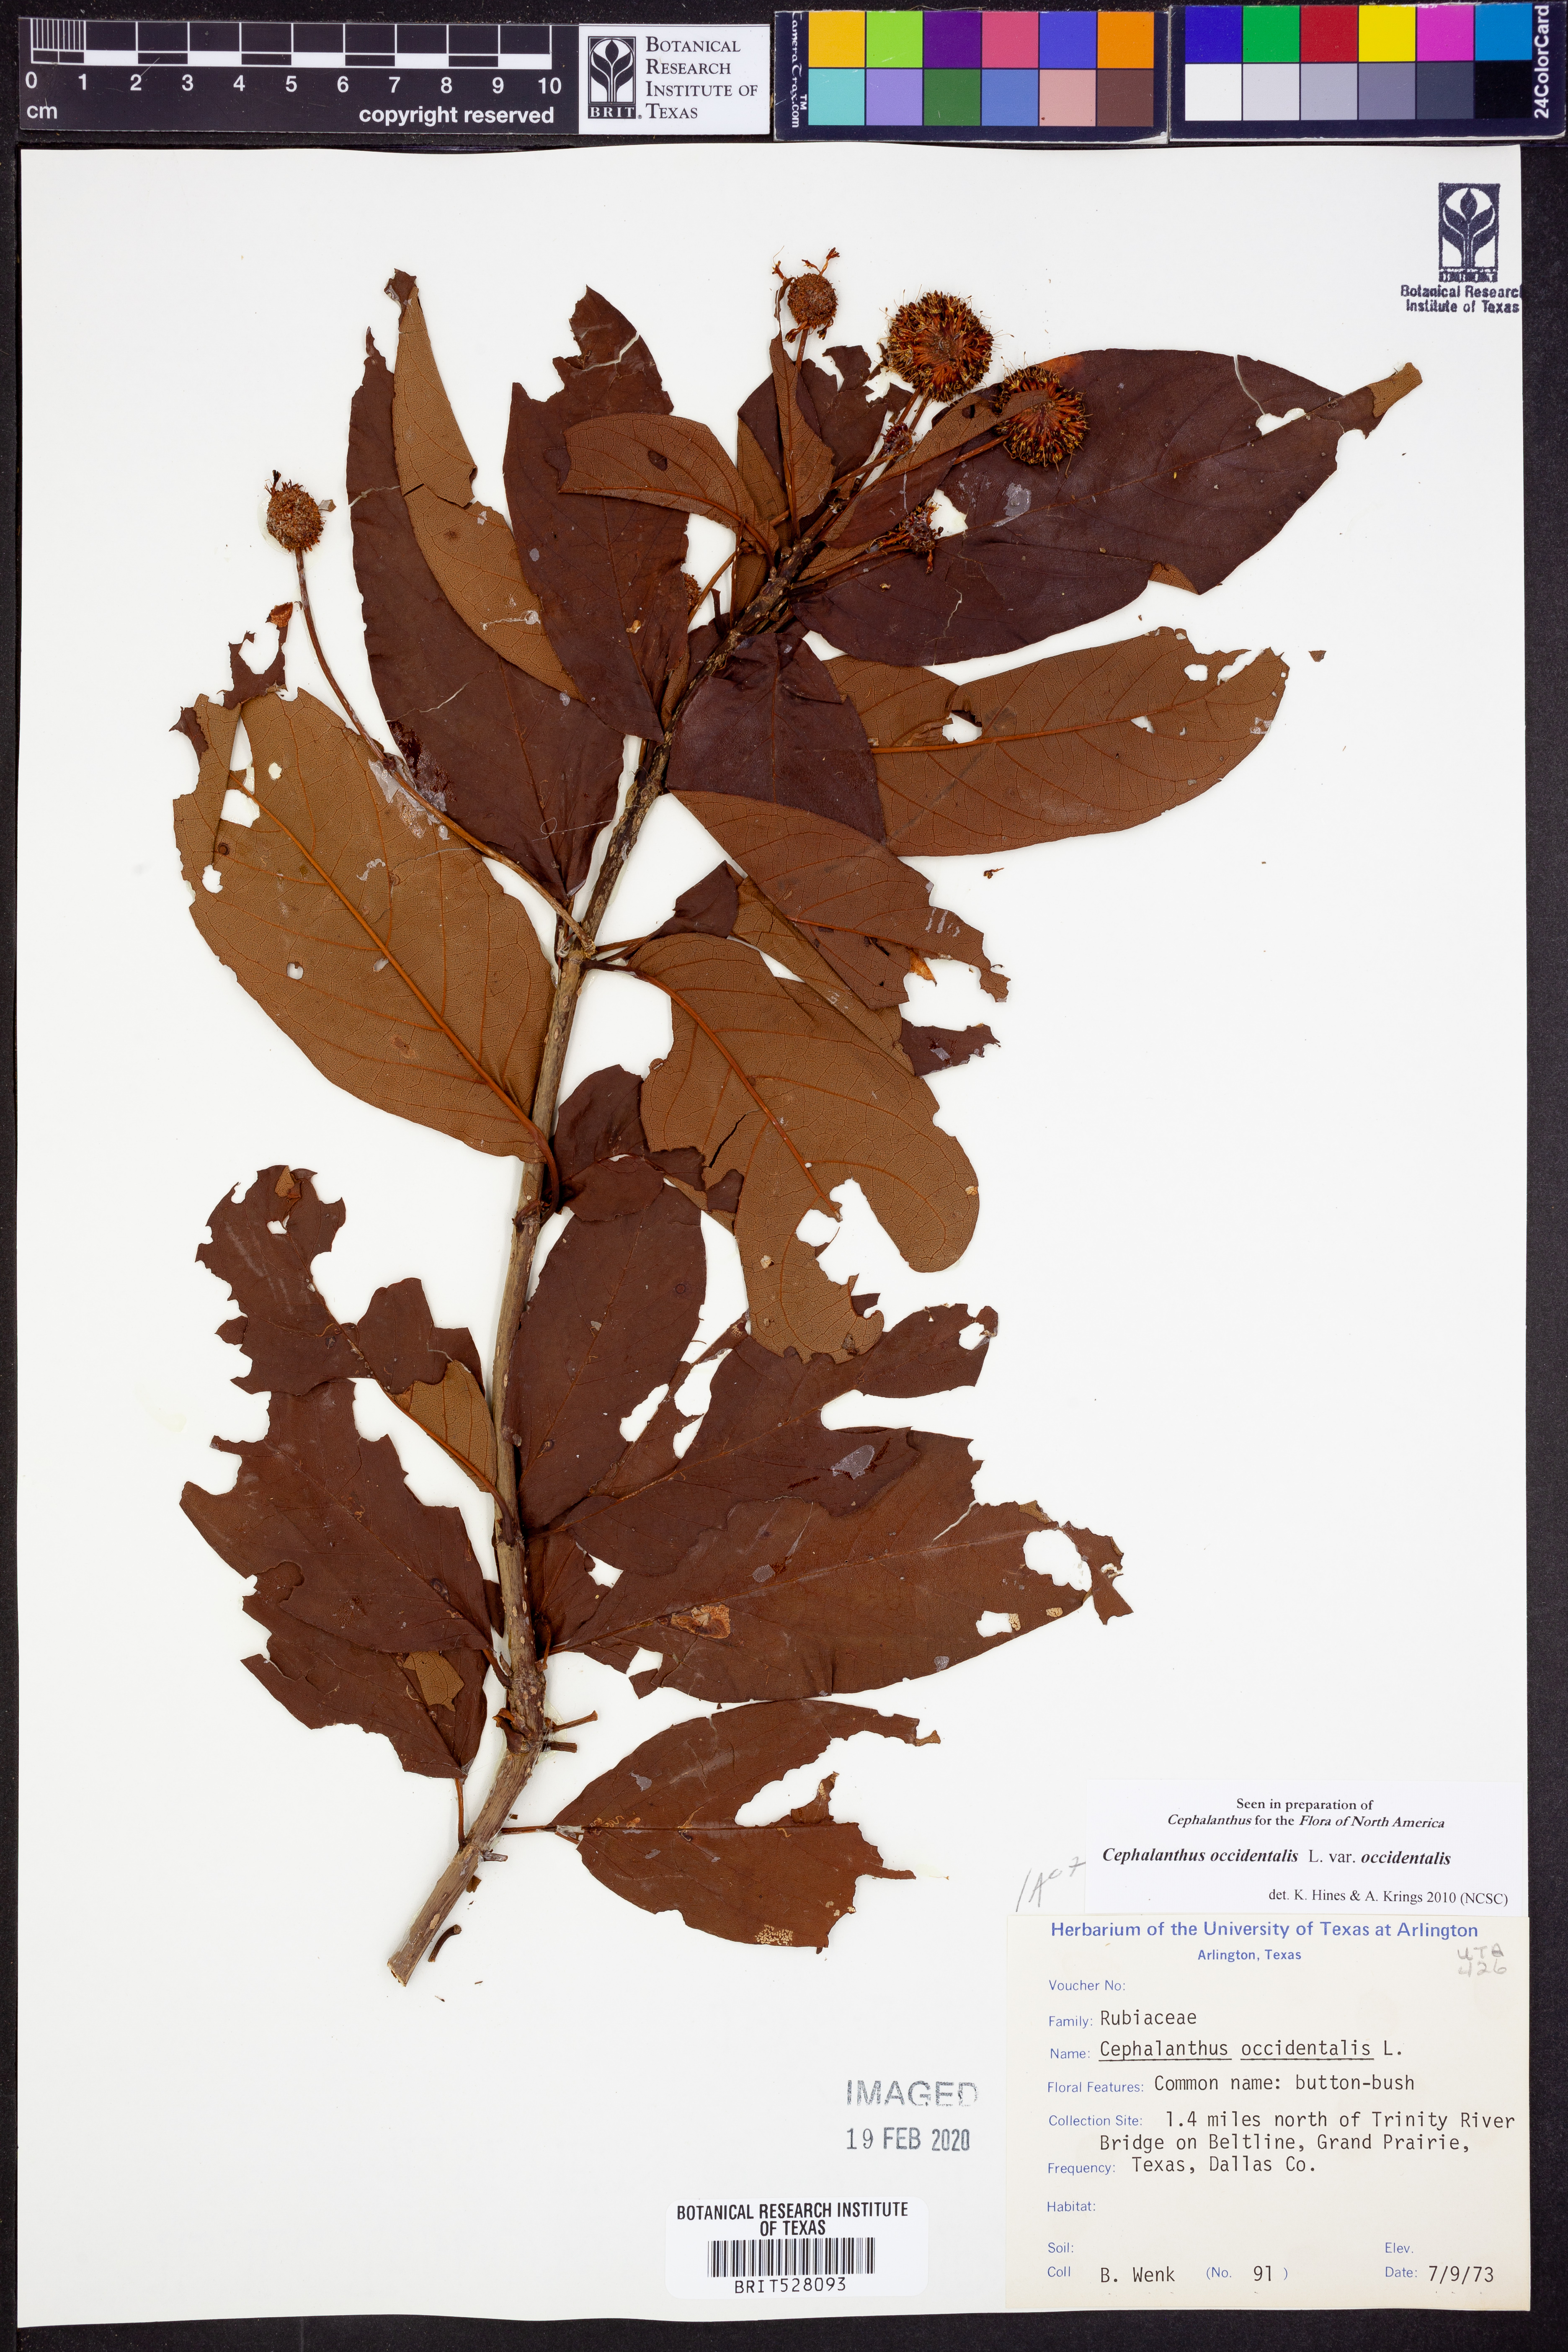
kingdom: Plantae
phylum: Tracheophyta
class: Magnoliopsida
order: Gentianales
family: Rubiaceae
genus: Cephalanthus
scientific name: Cephalanthus occidentalis
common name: Button-willow
